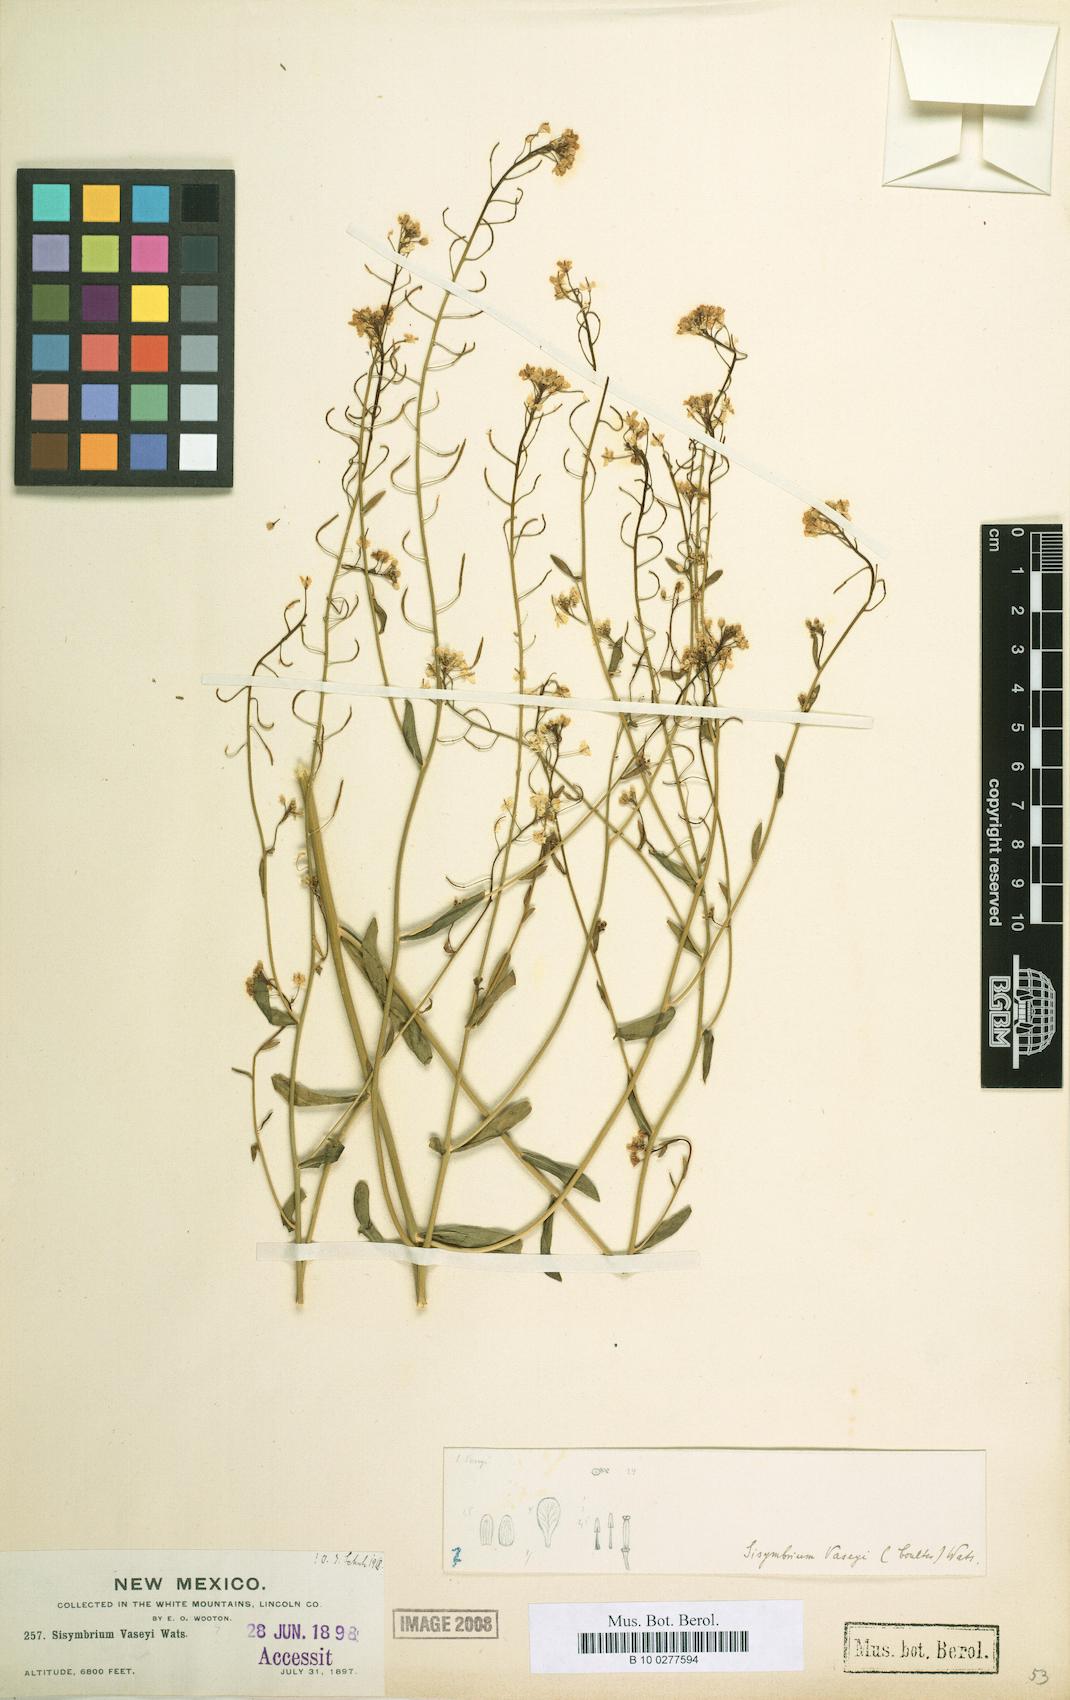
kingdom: Plantae
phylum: Tracheophyta
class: Magnoliopsida
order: Brassicales
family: Brassicaceae
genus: Mostacillastrum
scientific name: Mostacillastrum subauriculatum
